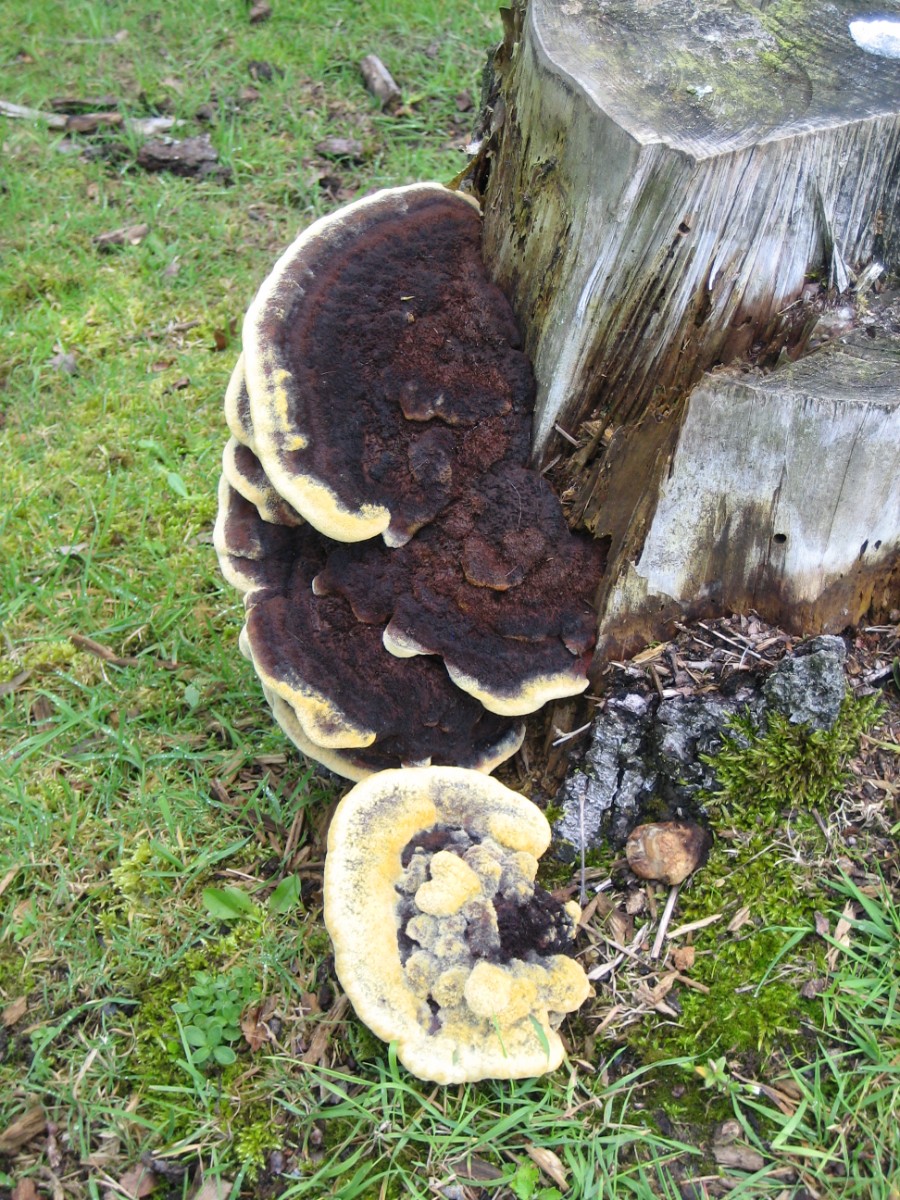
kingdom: Fungi
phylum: Basidiomycota
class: Agaricomycetes
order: Polyporales
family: Laetiporaceae
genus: Phaeolus
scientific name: Phaeolus schweinitzii
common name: brunporesvamp
